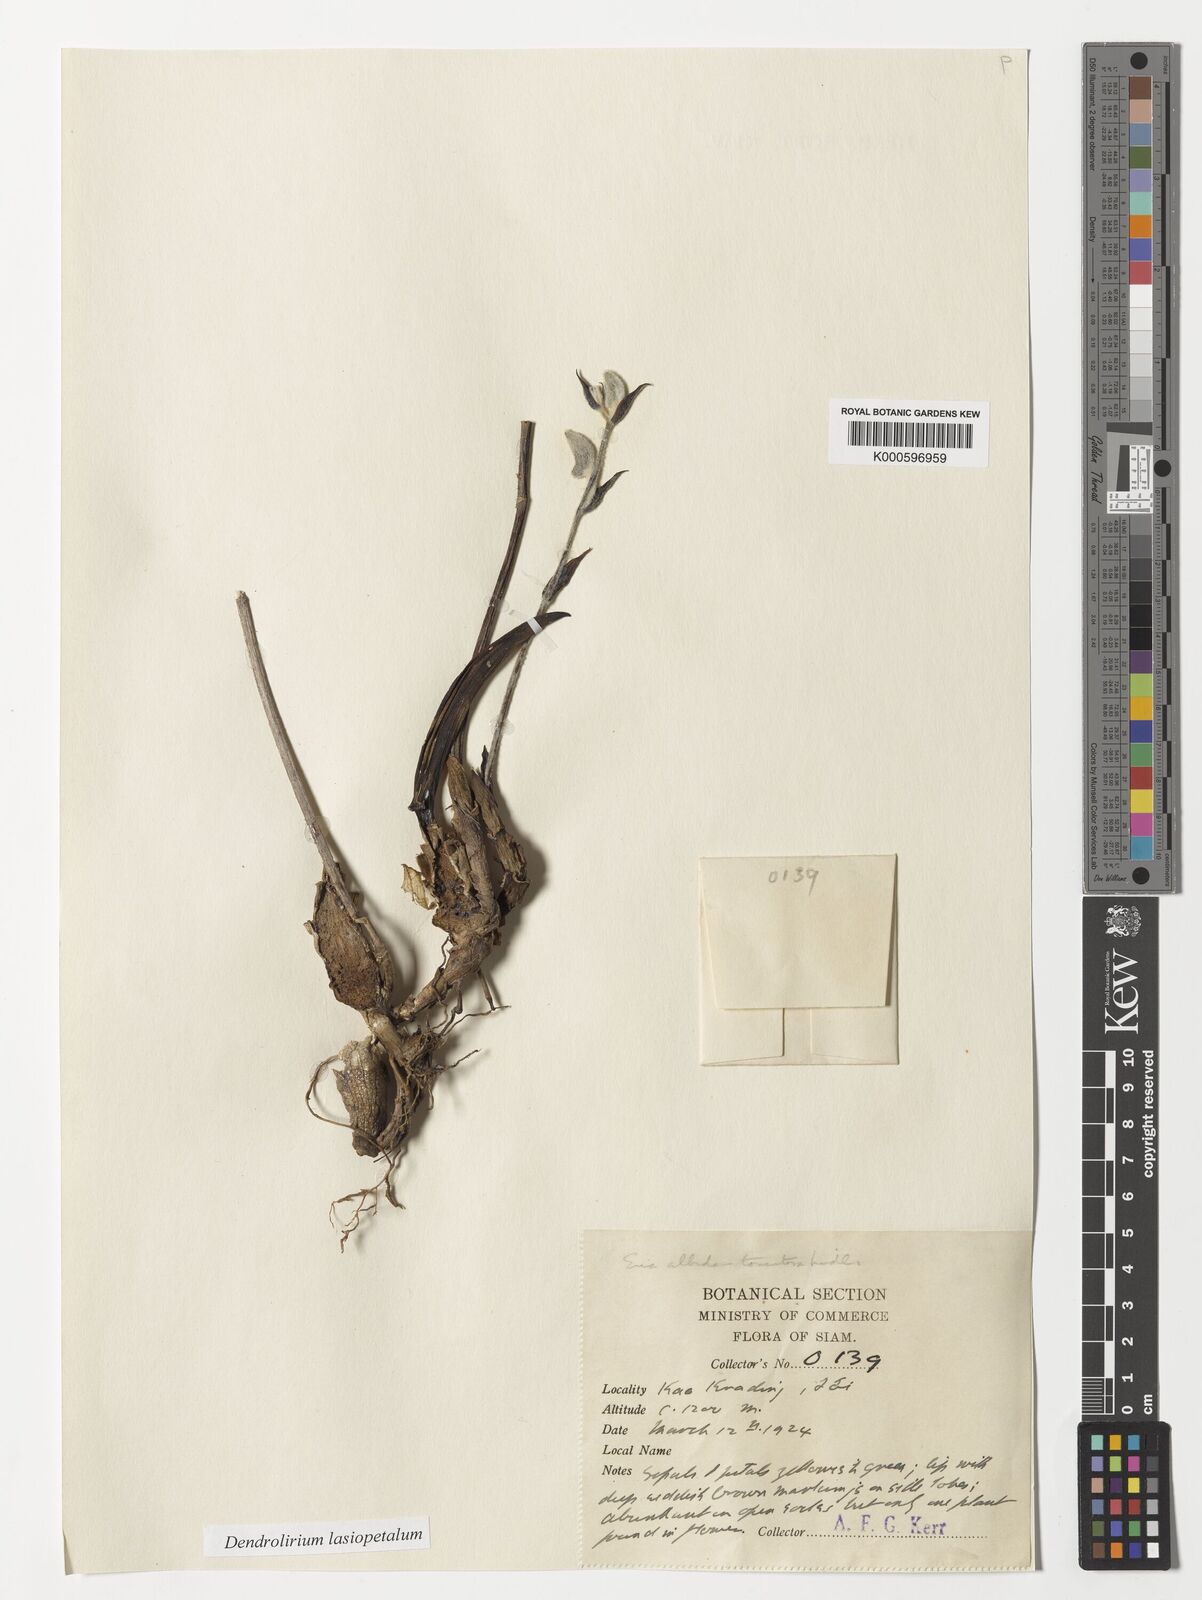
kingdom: Plantae
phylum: Tracheophyta
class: Liliopsida
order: Asparagales
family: Orchidaceae
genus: Dendrolirium
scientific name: Dendrolirium lasiopetalum
